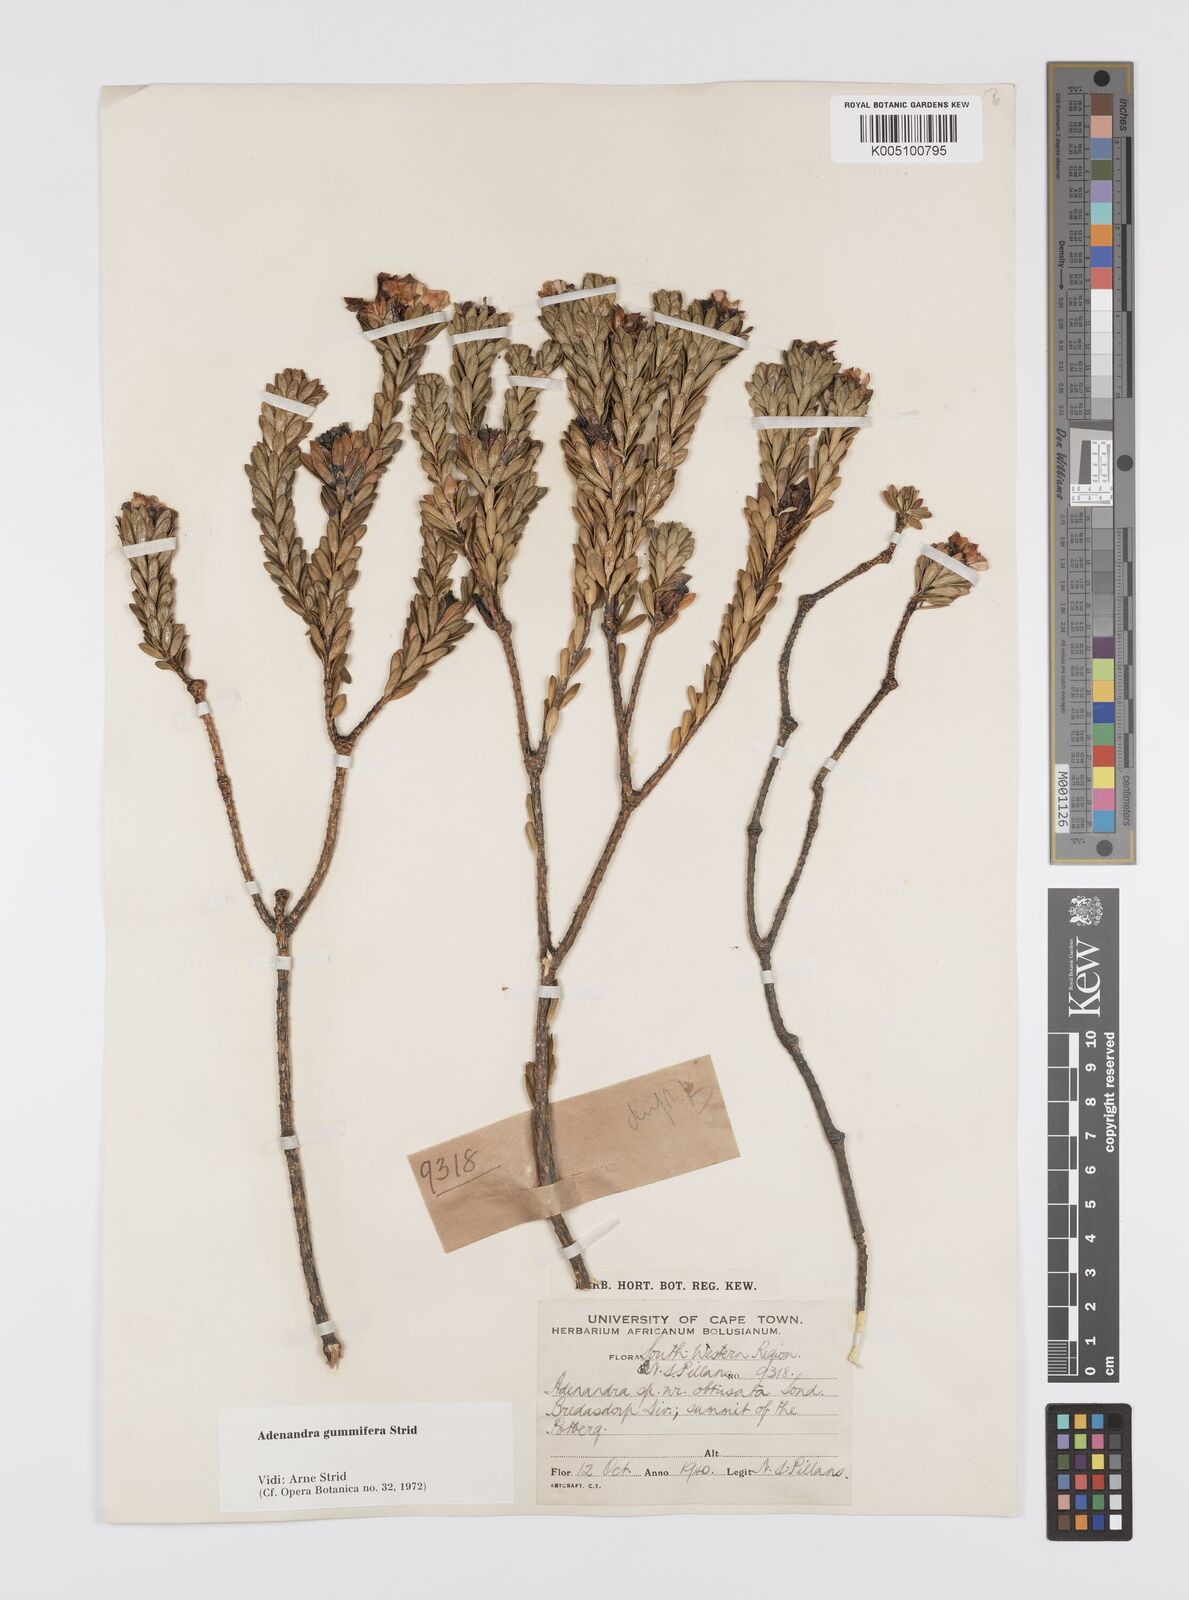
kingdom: Plantae
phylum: Tracheophyta
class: Magnoliopsida
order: Sapindales
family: Rutaceae
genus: Adenandra
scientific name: Adenandra gummifera
